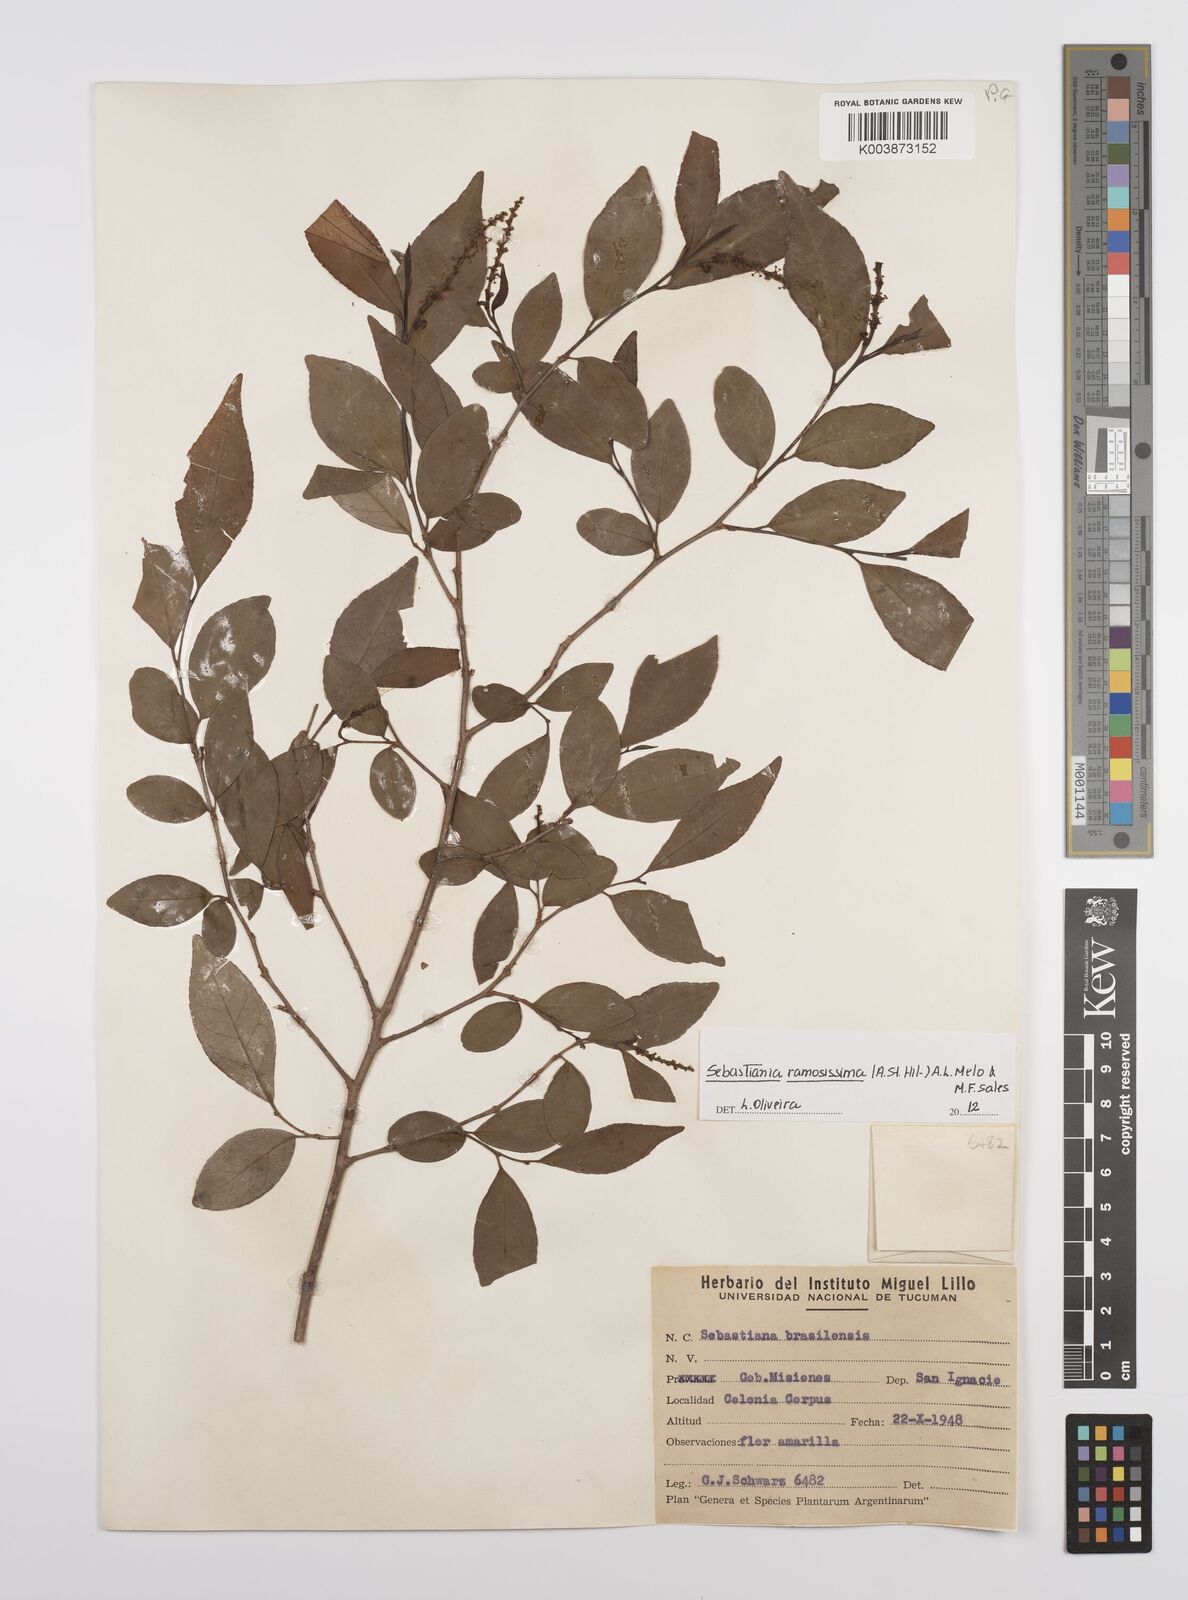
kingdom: Plantae
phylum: Tracheophyta
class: Magnoliopsida
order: Malpighiales
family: Euphorbiaceae
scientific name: Euphorbiaceae
